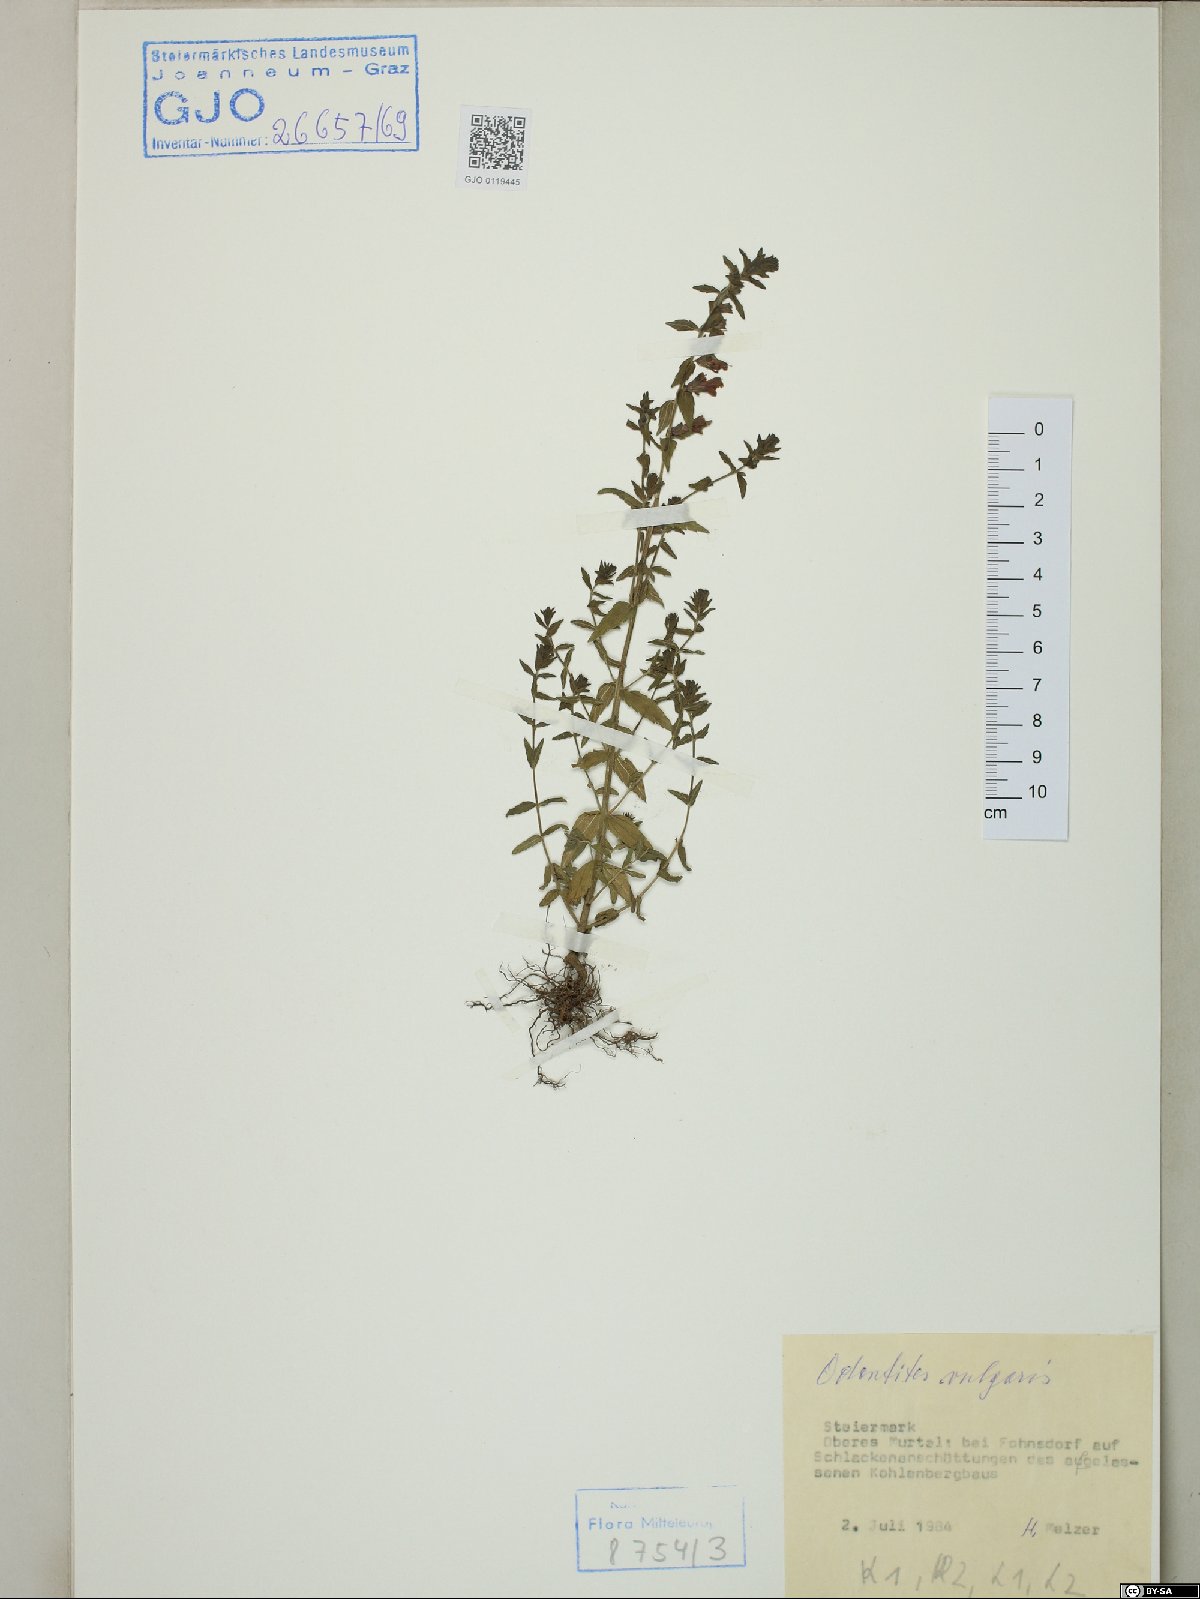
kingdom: Plantae
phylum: Tracheophyta
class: Magnoliopsida
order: Lamiales
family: Orobanchaceae
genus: Odontites
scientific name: Odontites vulgaris
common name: Broomrape
